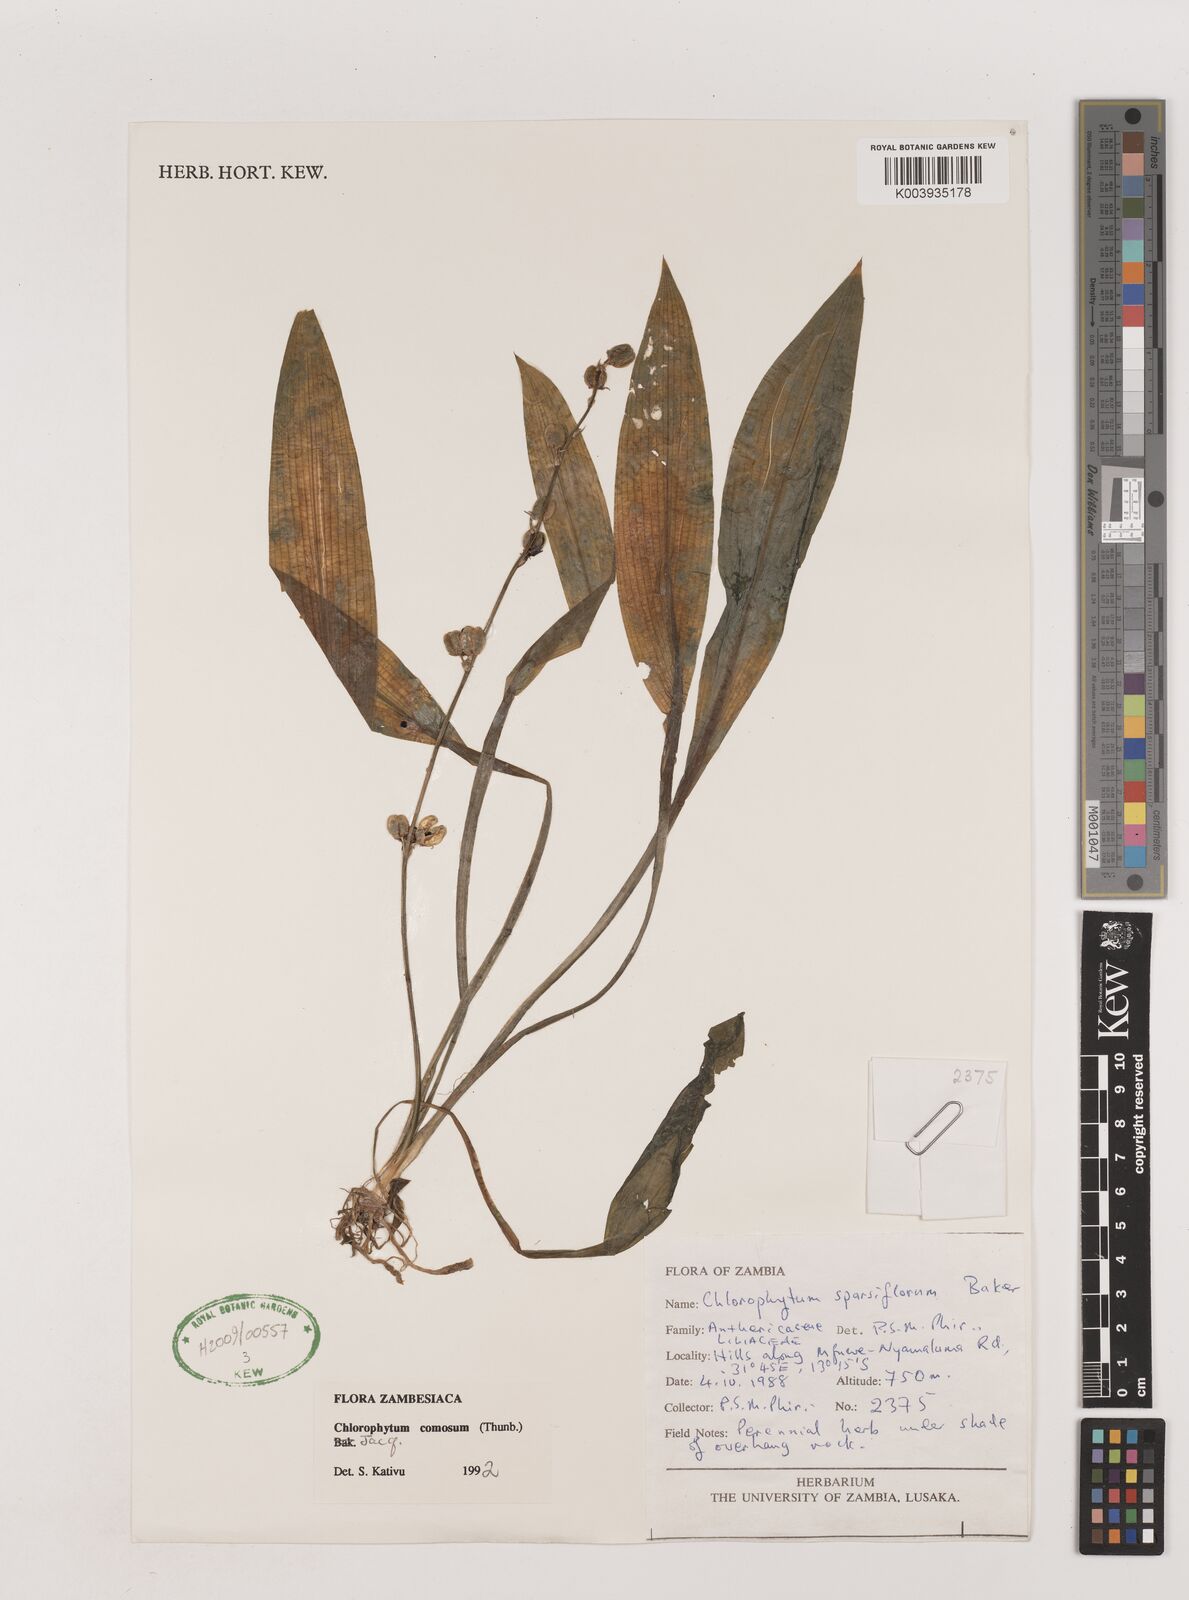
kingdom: Plantae
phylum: Tracheophyta
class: Liliopsida
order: Asparagales
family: Asparagaceae
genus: Chlorophytum
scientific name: Chlorophytum comosum
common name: Spider plant
